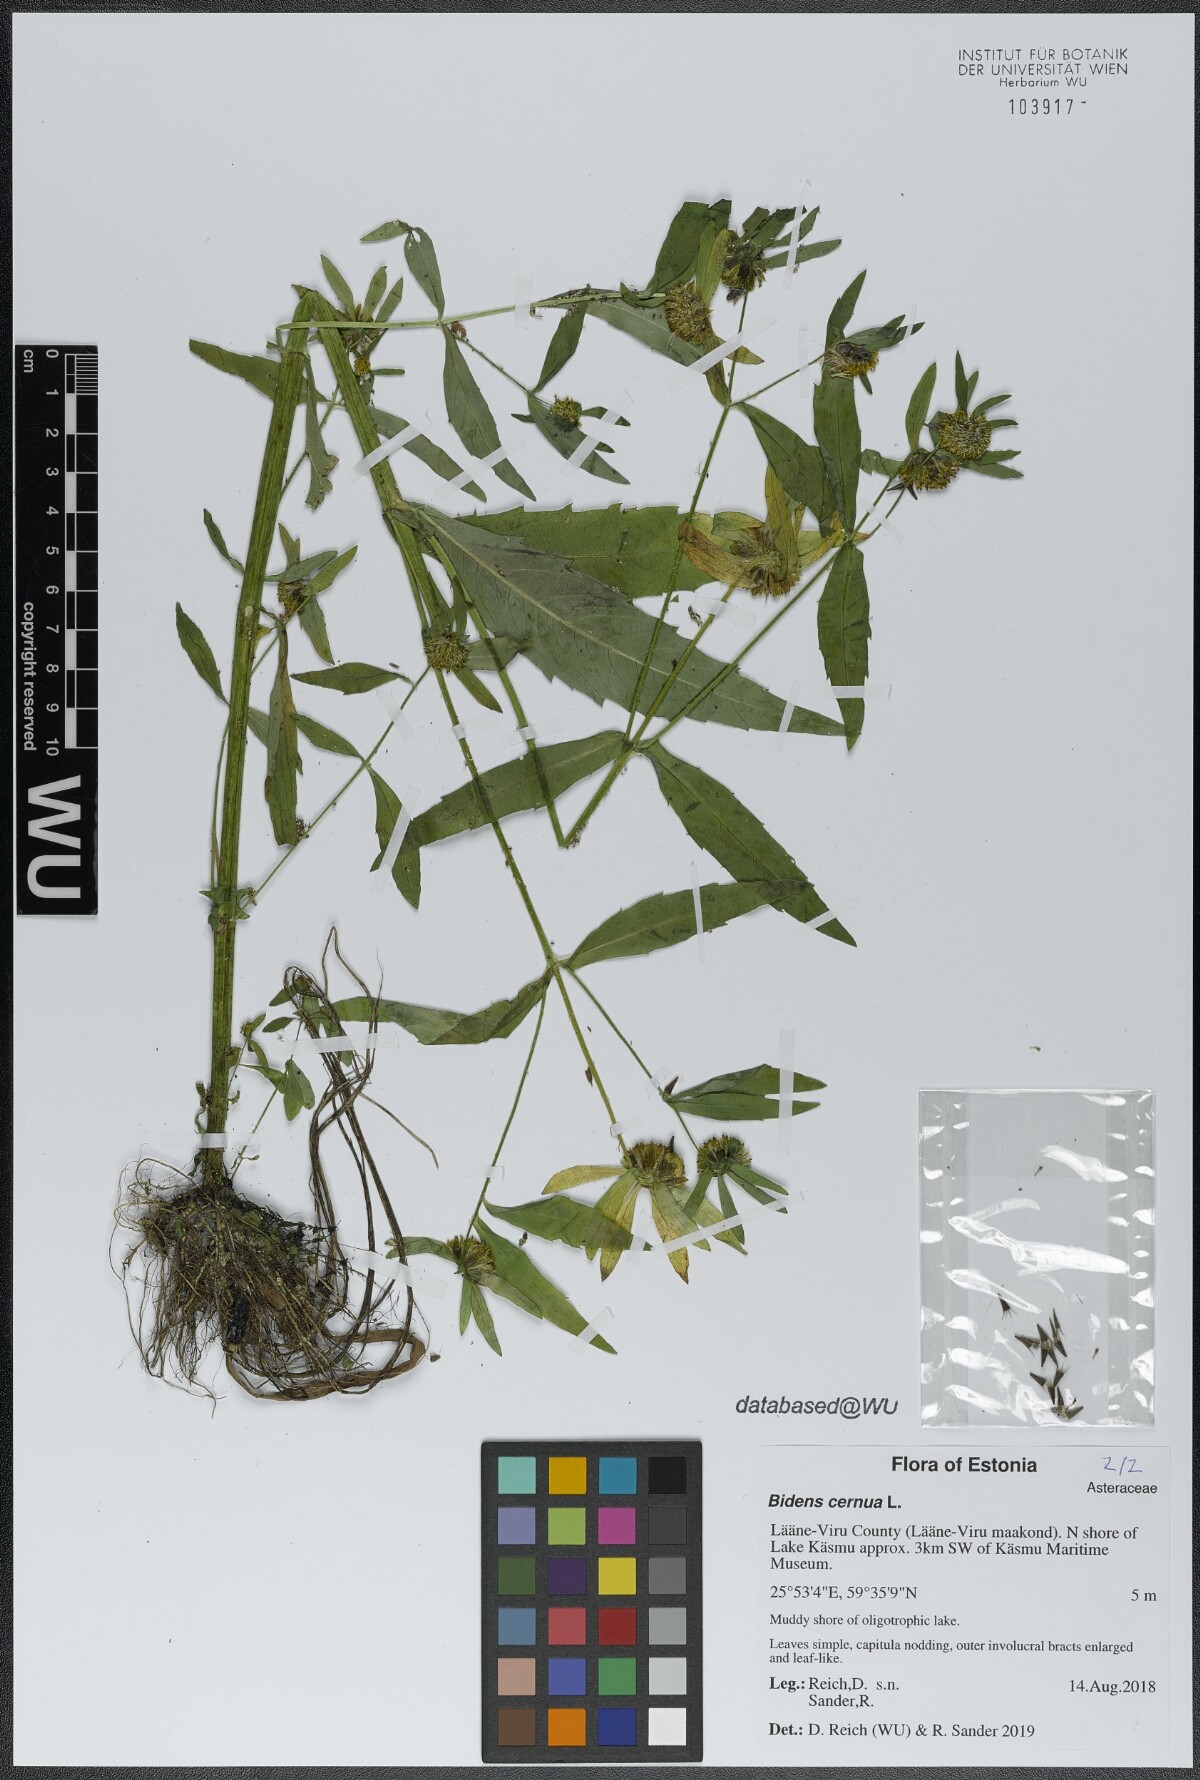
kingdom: Plantae
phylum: Tracheophyta
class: Magnoliopsida
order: Asterales
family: Asteraceae
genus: Bidens
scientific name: Bidens cernua
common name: Nodding bur-marigold
